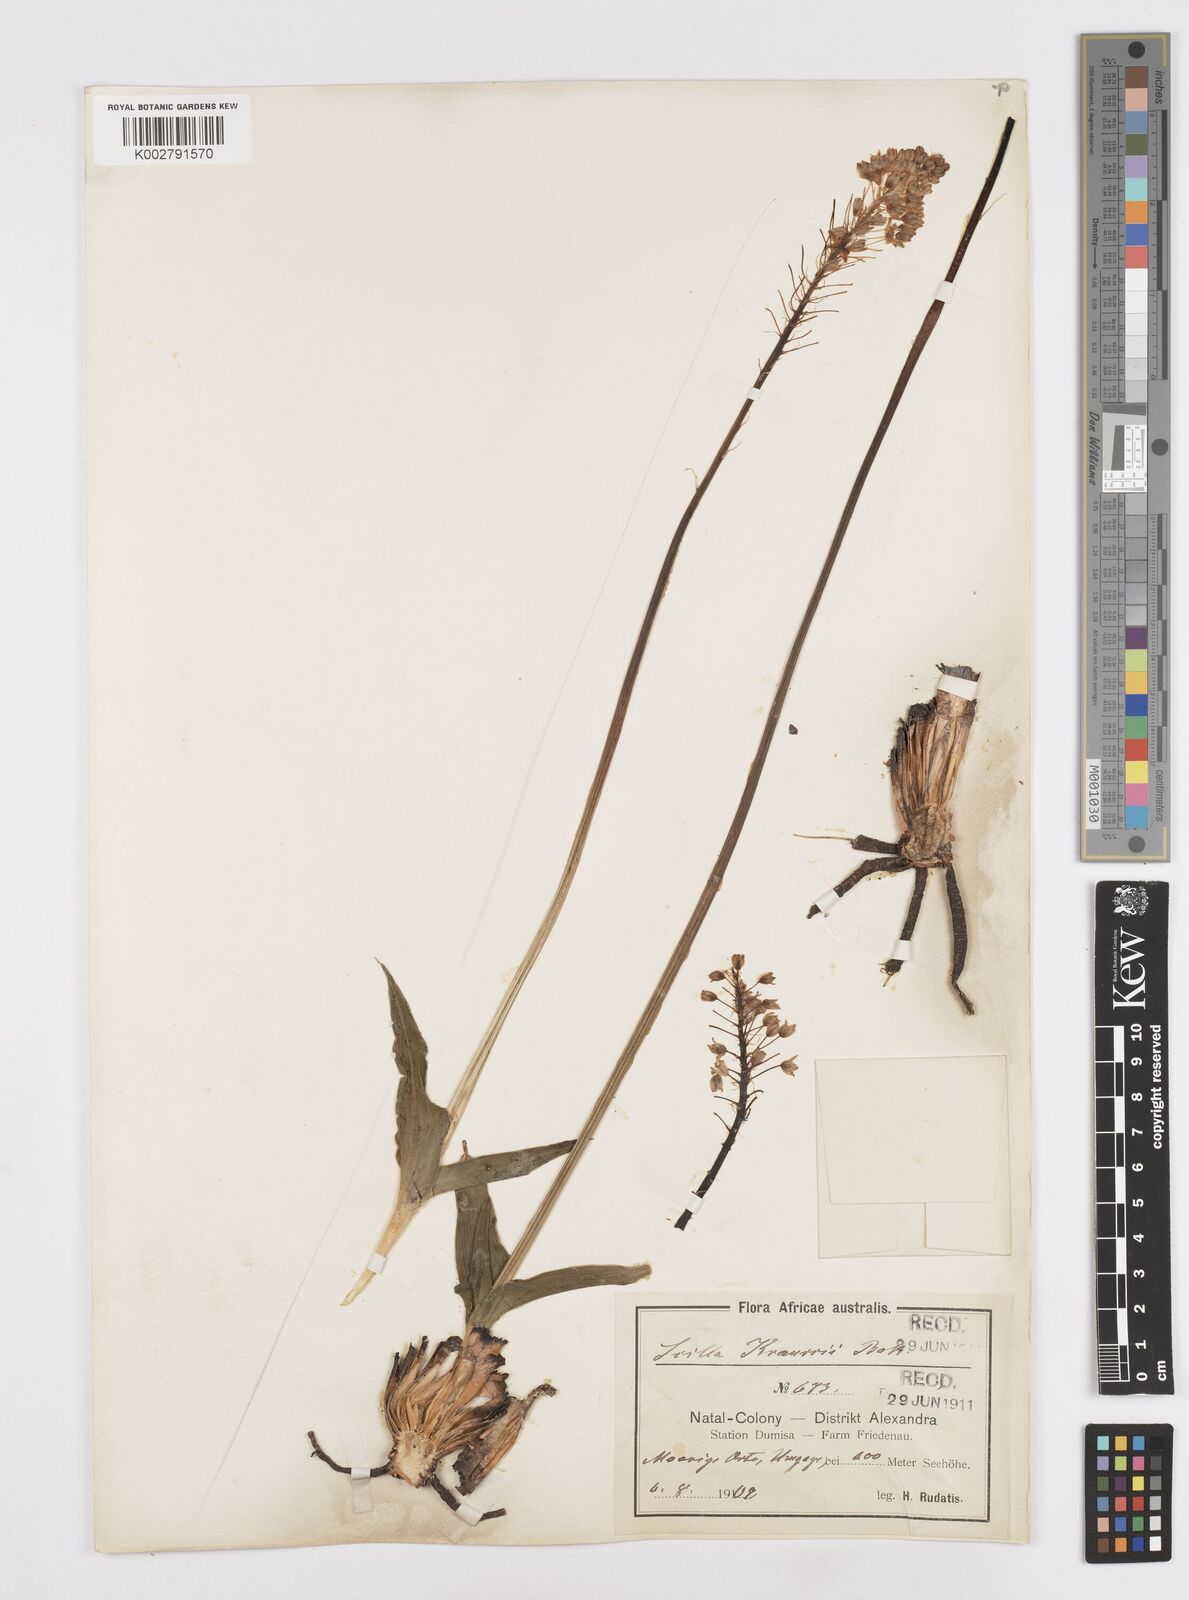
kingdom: Plantae
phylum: Tracheophyta
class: Liliopsida
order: Asparagales
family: Asparagaceae
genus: Merwilla
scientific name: Merwilla plumbea
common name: Blue-squill
